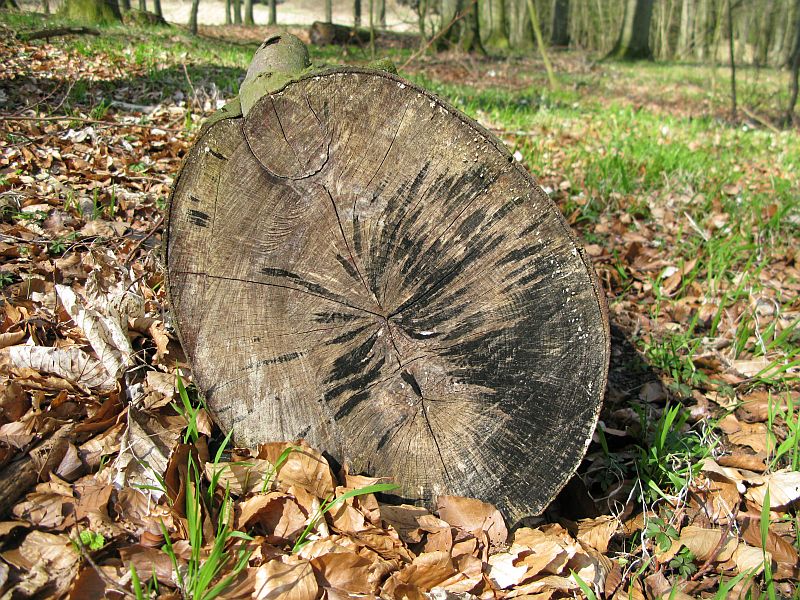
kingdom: Fungi
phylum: Ascomycota
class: Leotiomycetes
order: Helotiales
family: Helotiaceae
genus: Bispora
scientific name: Bispora pallescens
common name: måtte-snitskive
